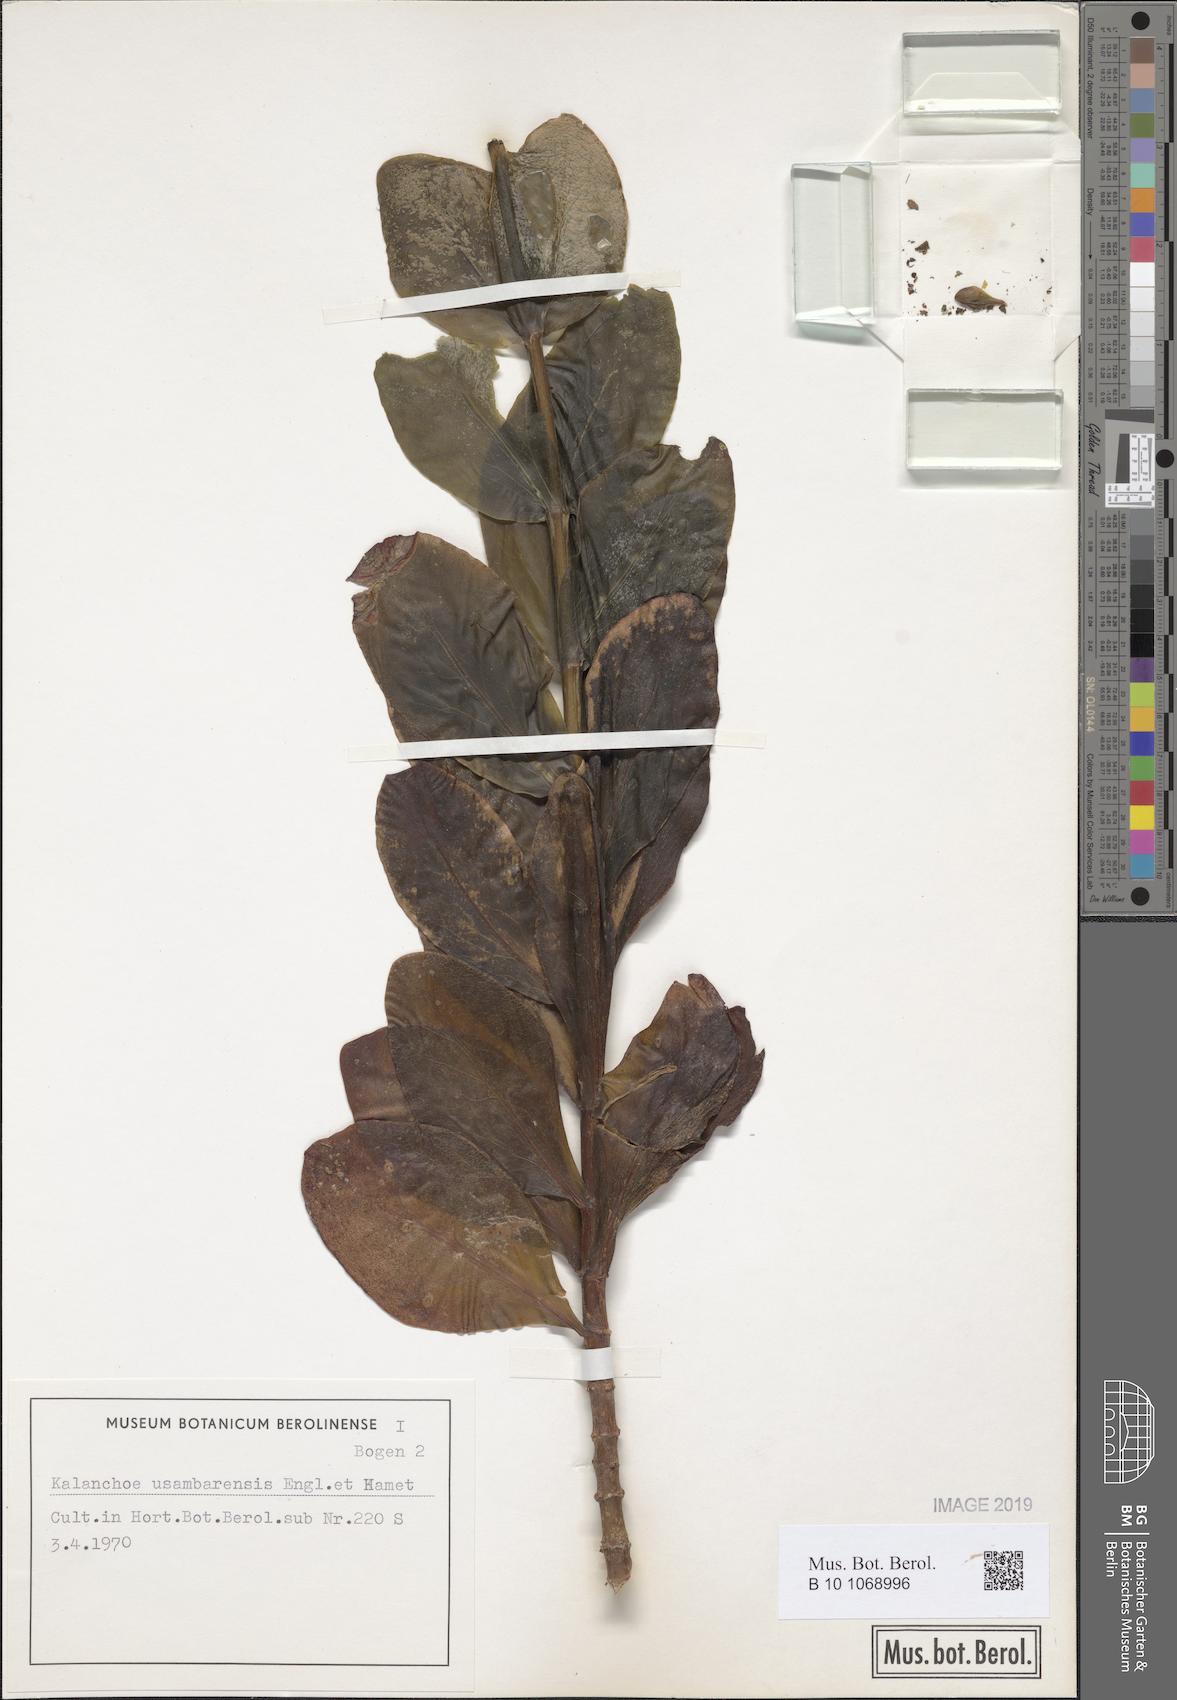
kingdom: Plantae
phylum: Tracheophyta
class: Magnoliopsida
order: Saxifragales
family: Crassulaceae
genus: Kalanchoe
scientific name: Kalanchoe usambarensis
